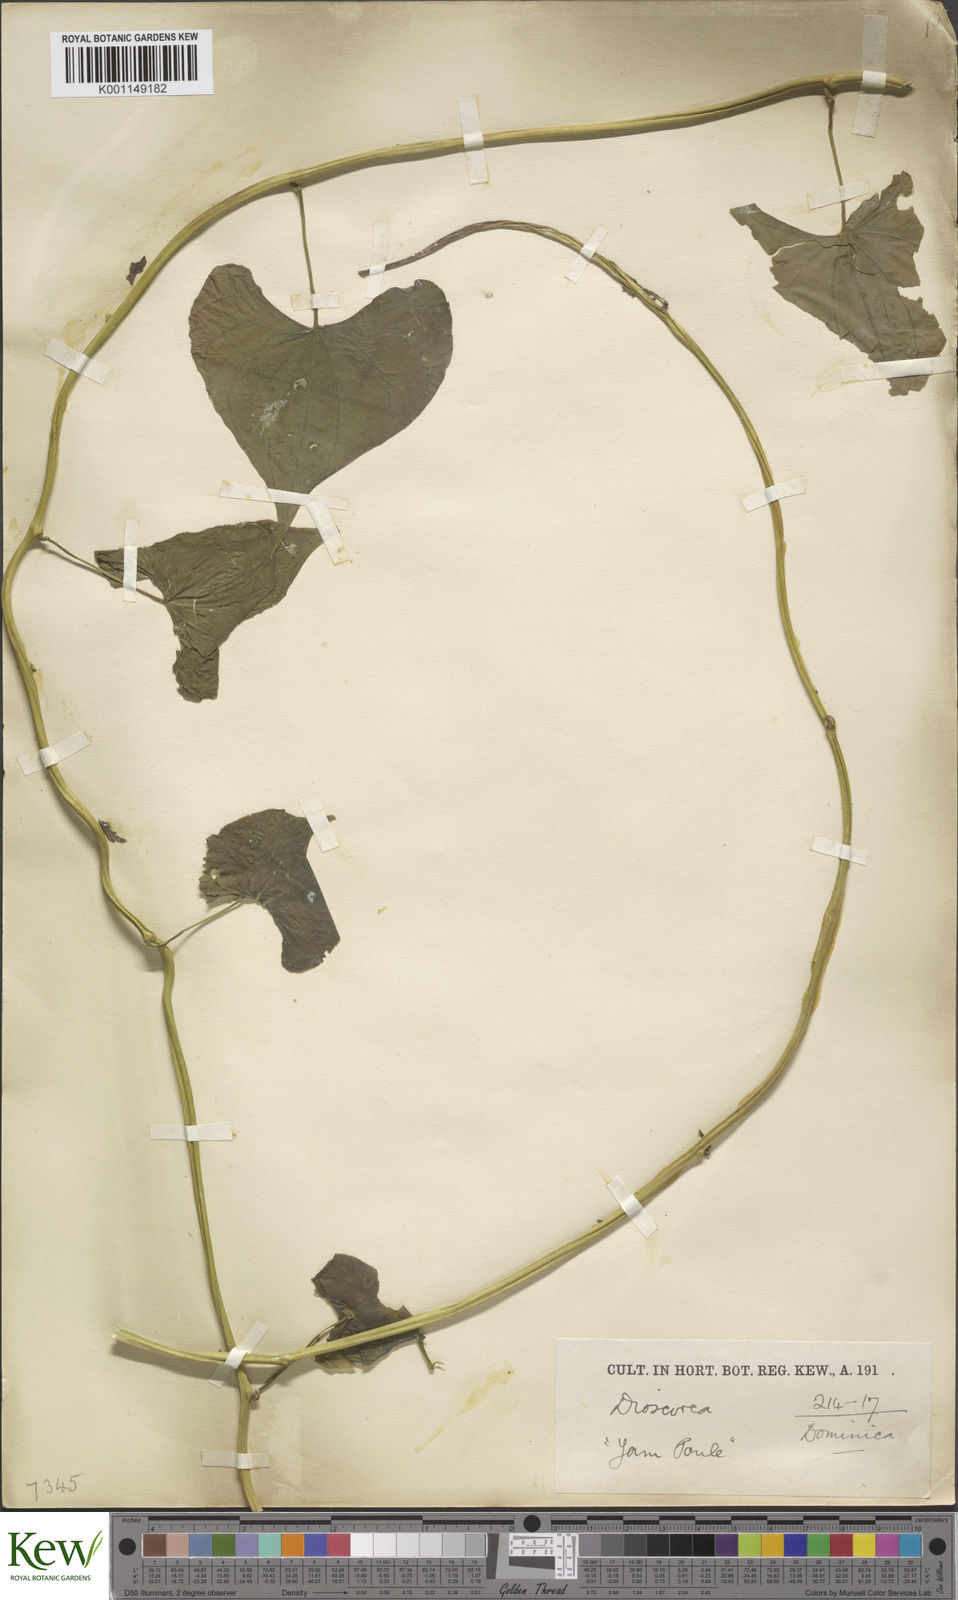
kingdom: Plantae
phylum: Tracheophyta
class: Liliopsida
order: Dioscoreales
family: Dioscoreaceae
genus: Dioscorea
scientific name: Dioscorea polygonoides
